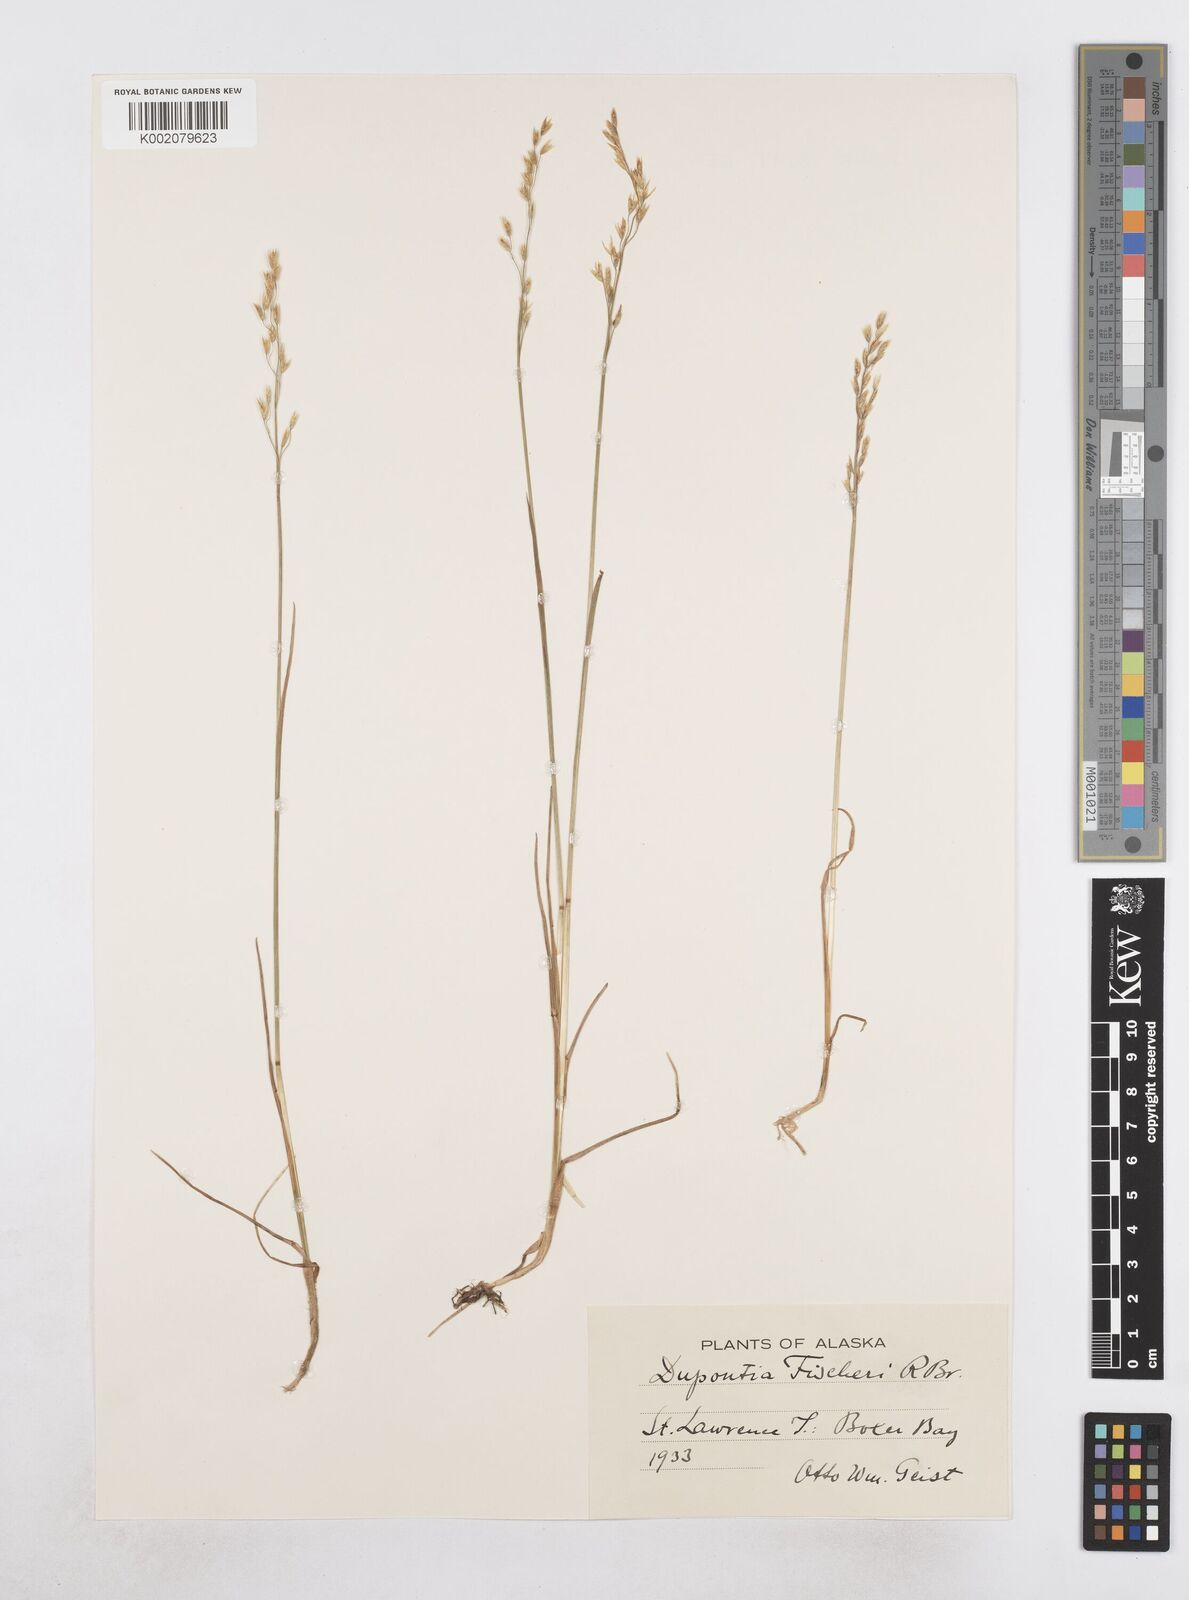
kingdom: Plantae
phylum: Tracheophyta
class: Liliopsida
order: Poales
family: Poaceae
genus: Dupontia
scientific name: Dupontia fisheri
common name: Tundra grass
